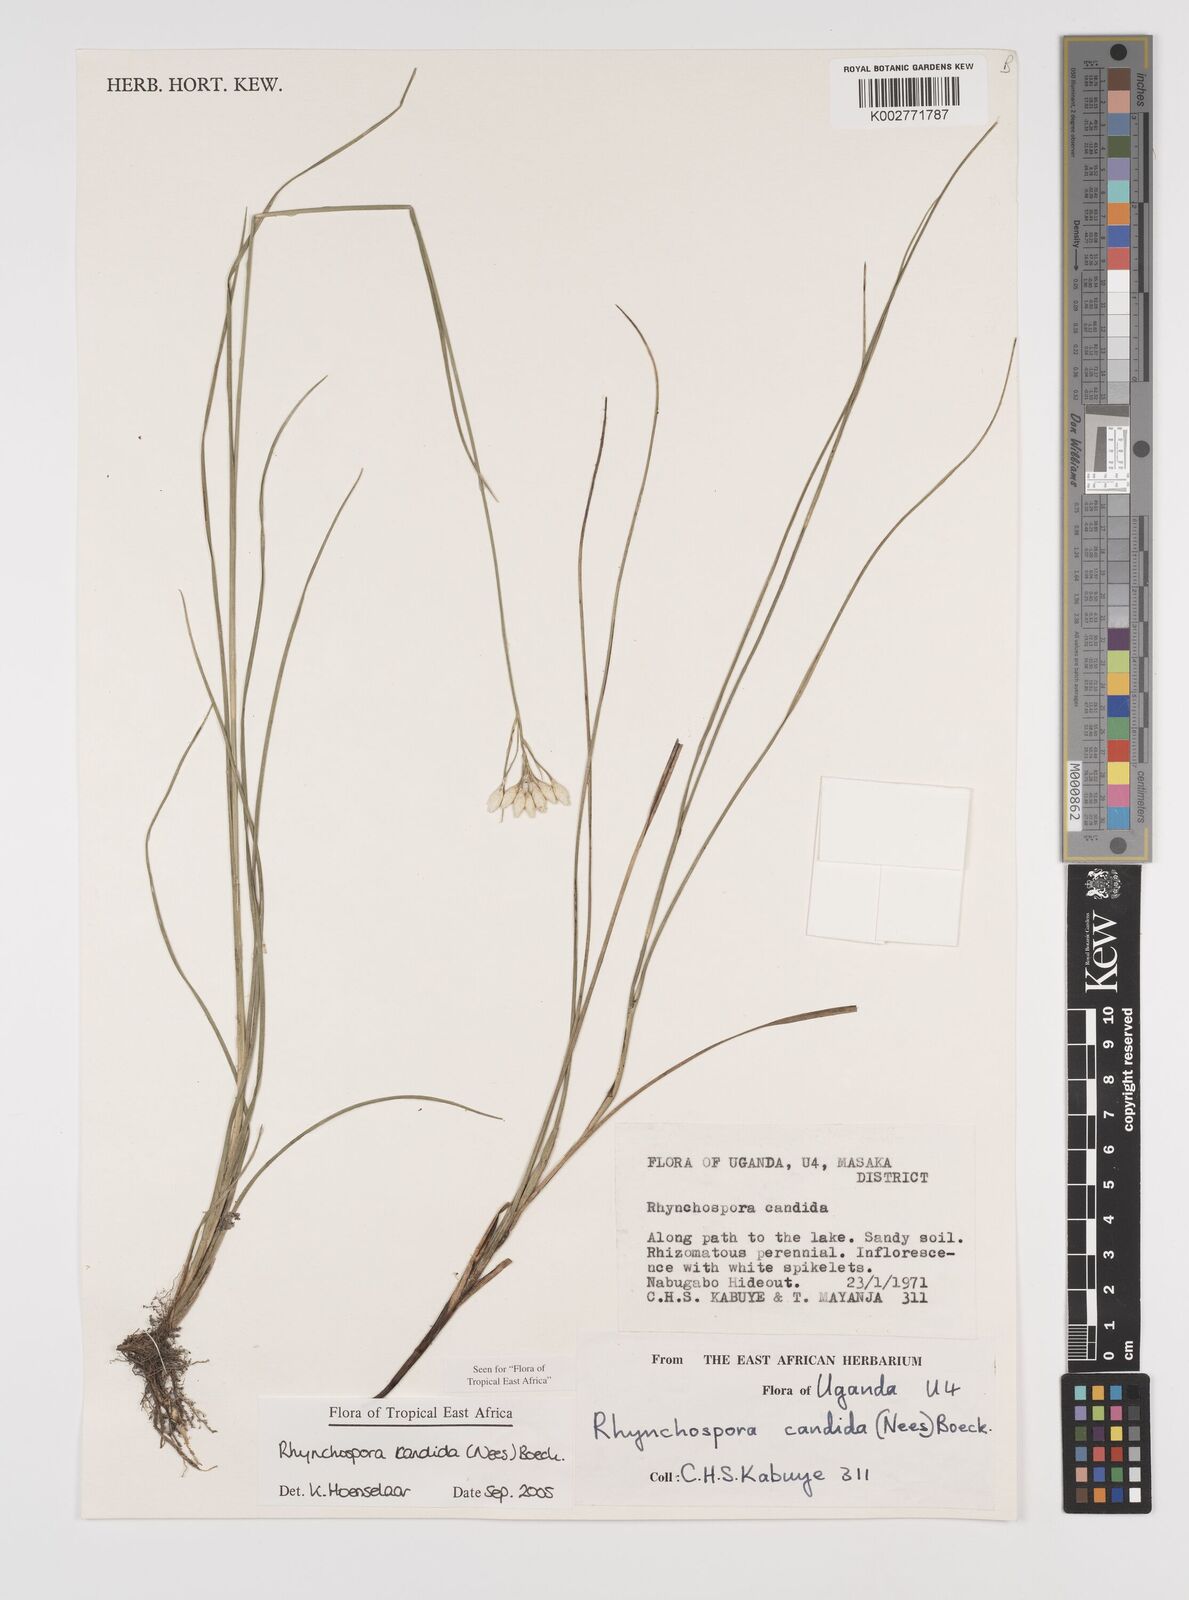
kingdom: Plantae
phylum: Tracheophyta
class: Liliopsida
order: Poales
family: Cyperaceae
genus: Rhynchospora
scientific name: Rhynchospora candida
